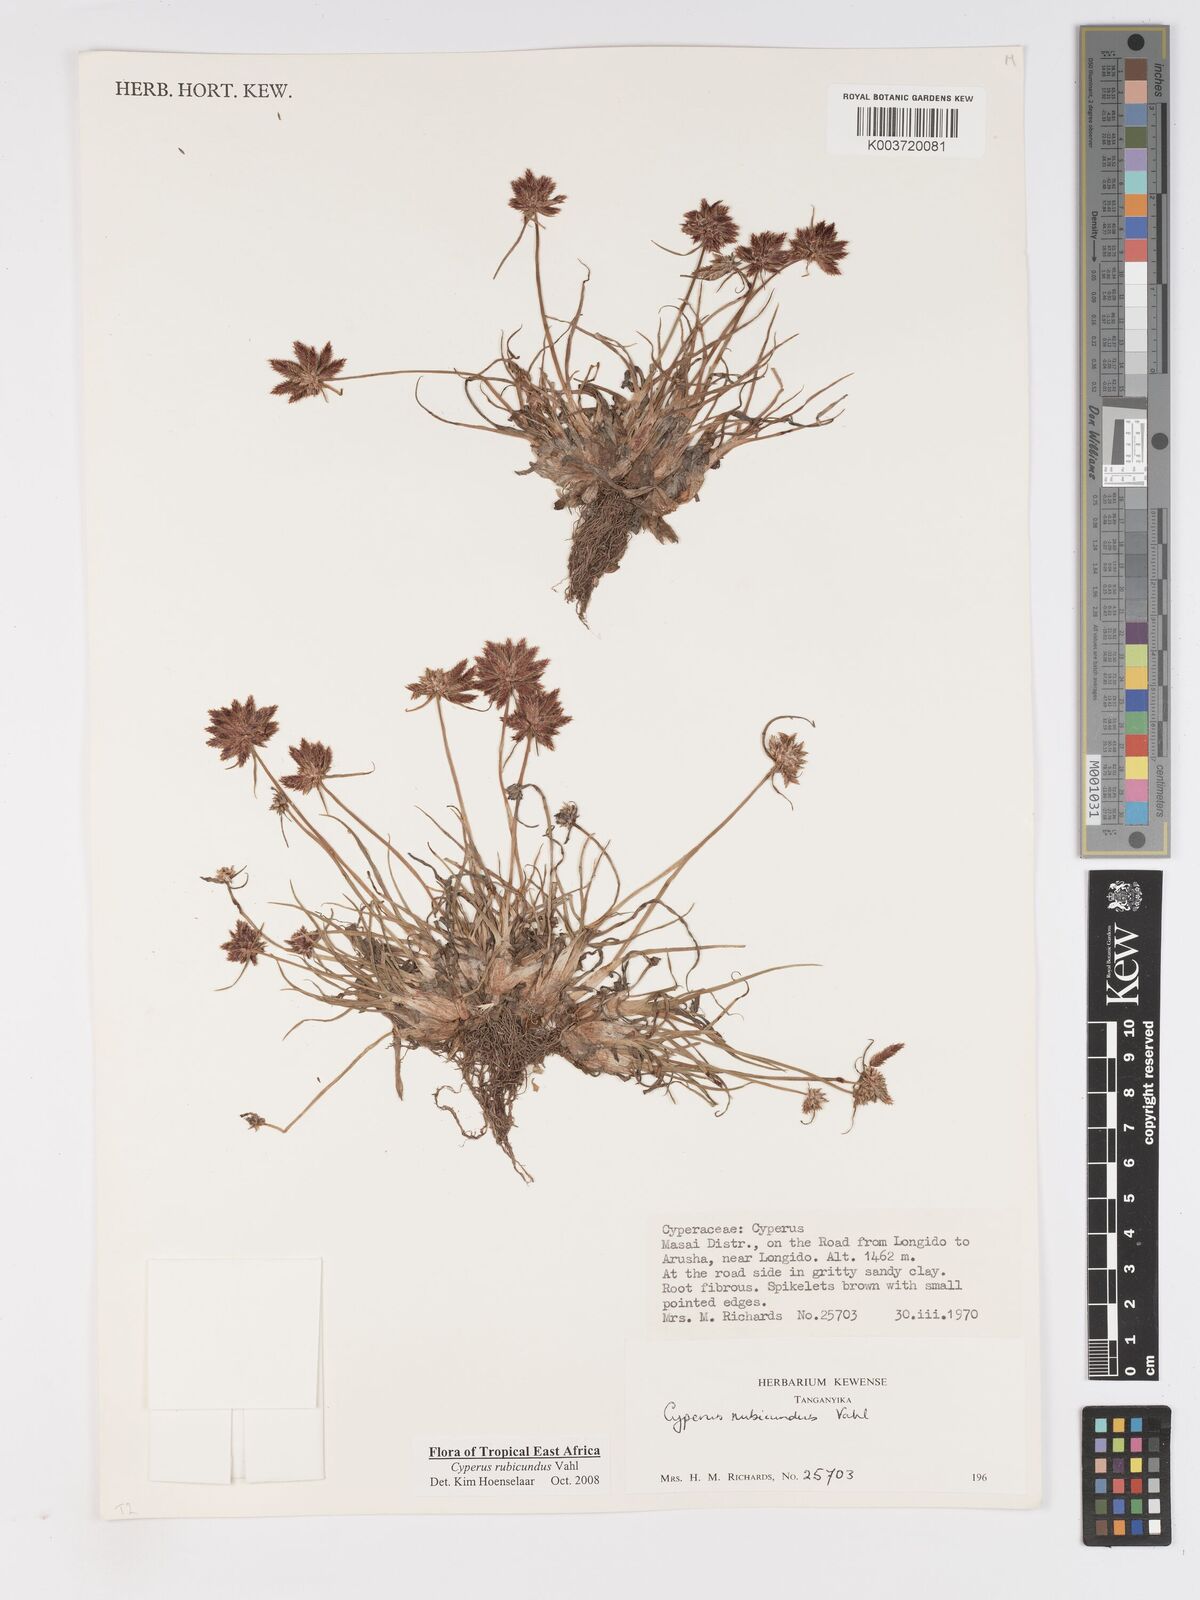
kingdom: Plantae
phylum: Tracheophyta
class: Liliopsida
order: Poales
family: Cyperaceae
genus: Cyperus
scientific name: Cyperus rubicundus
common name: Coco-grass
